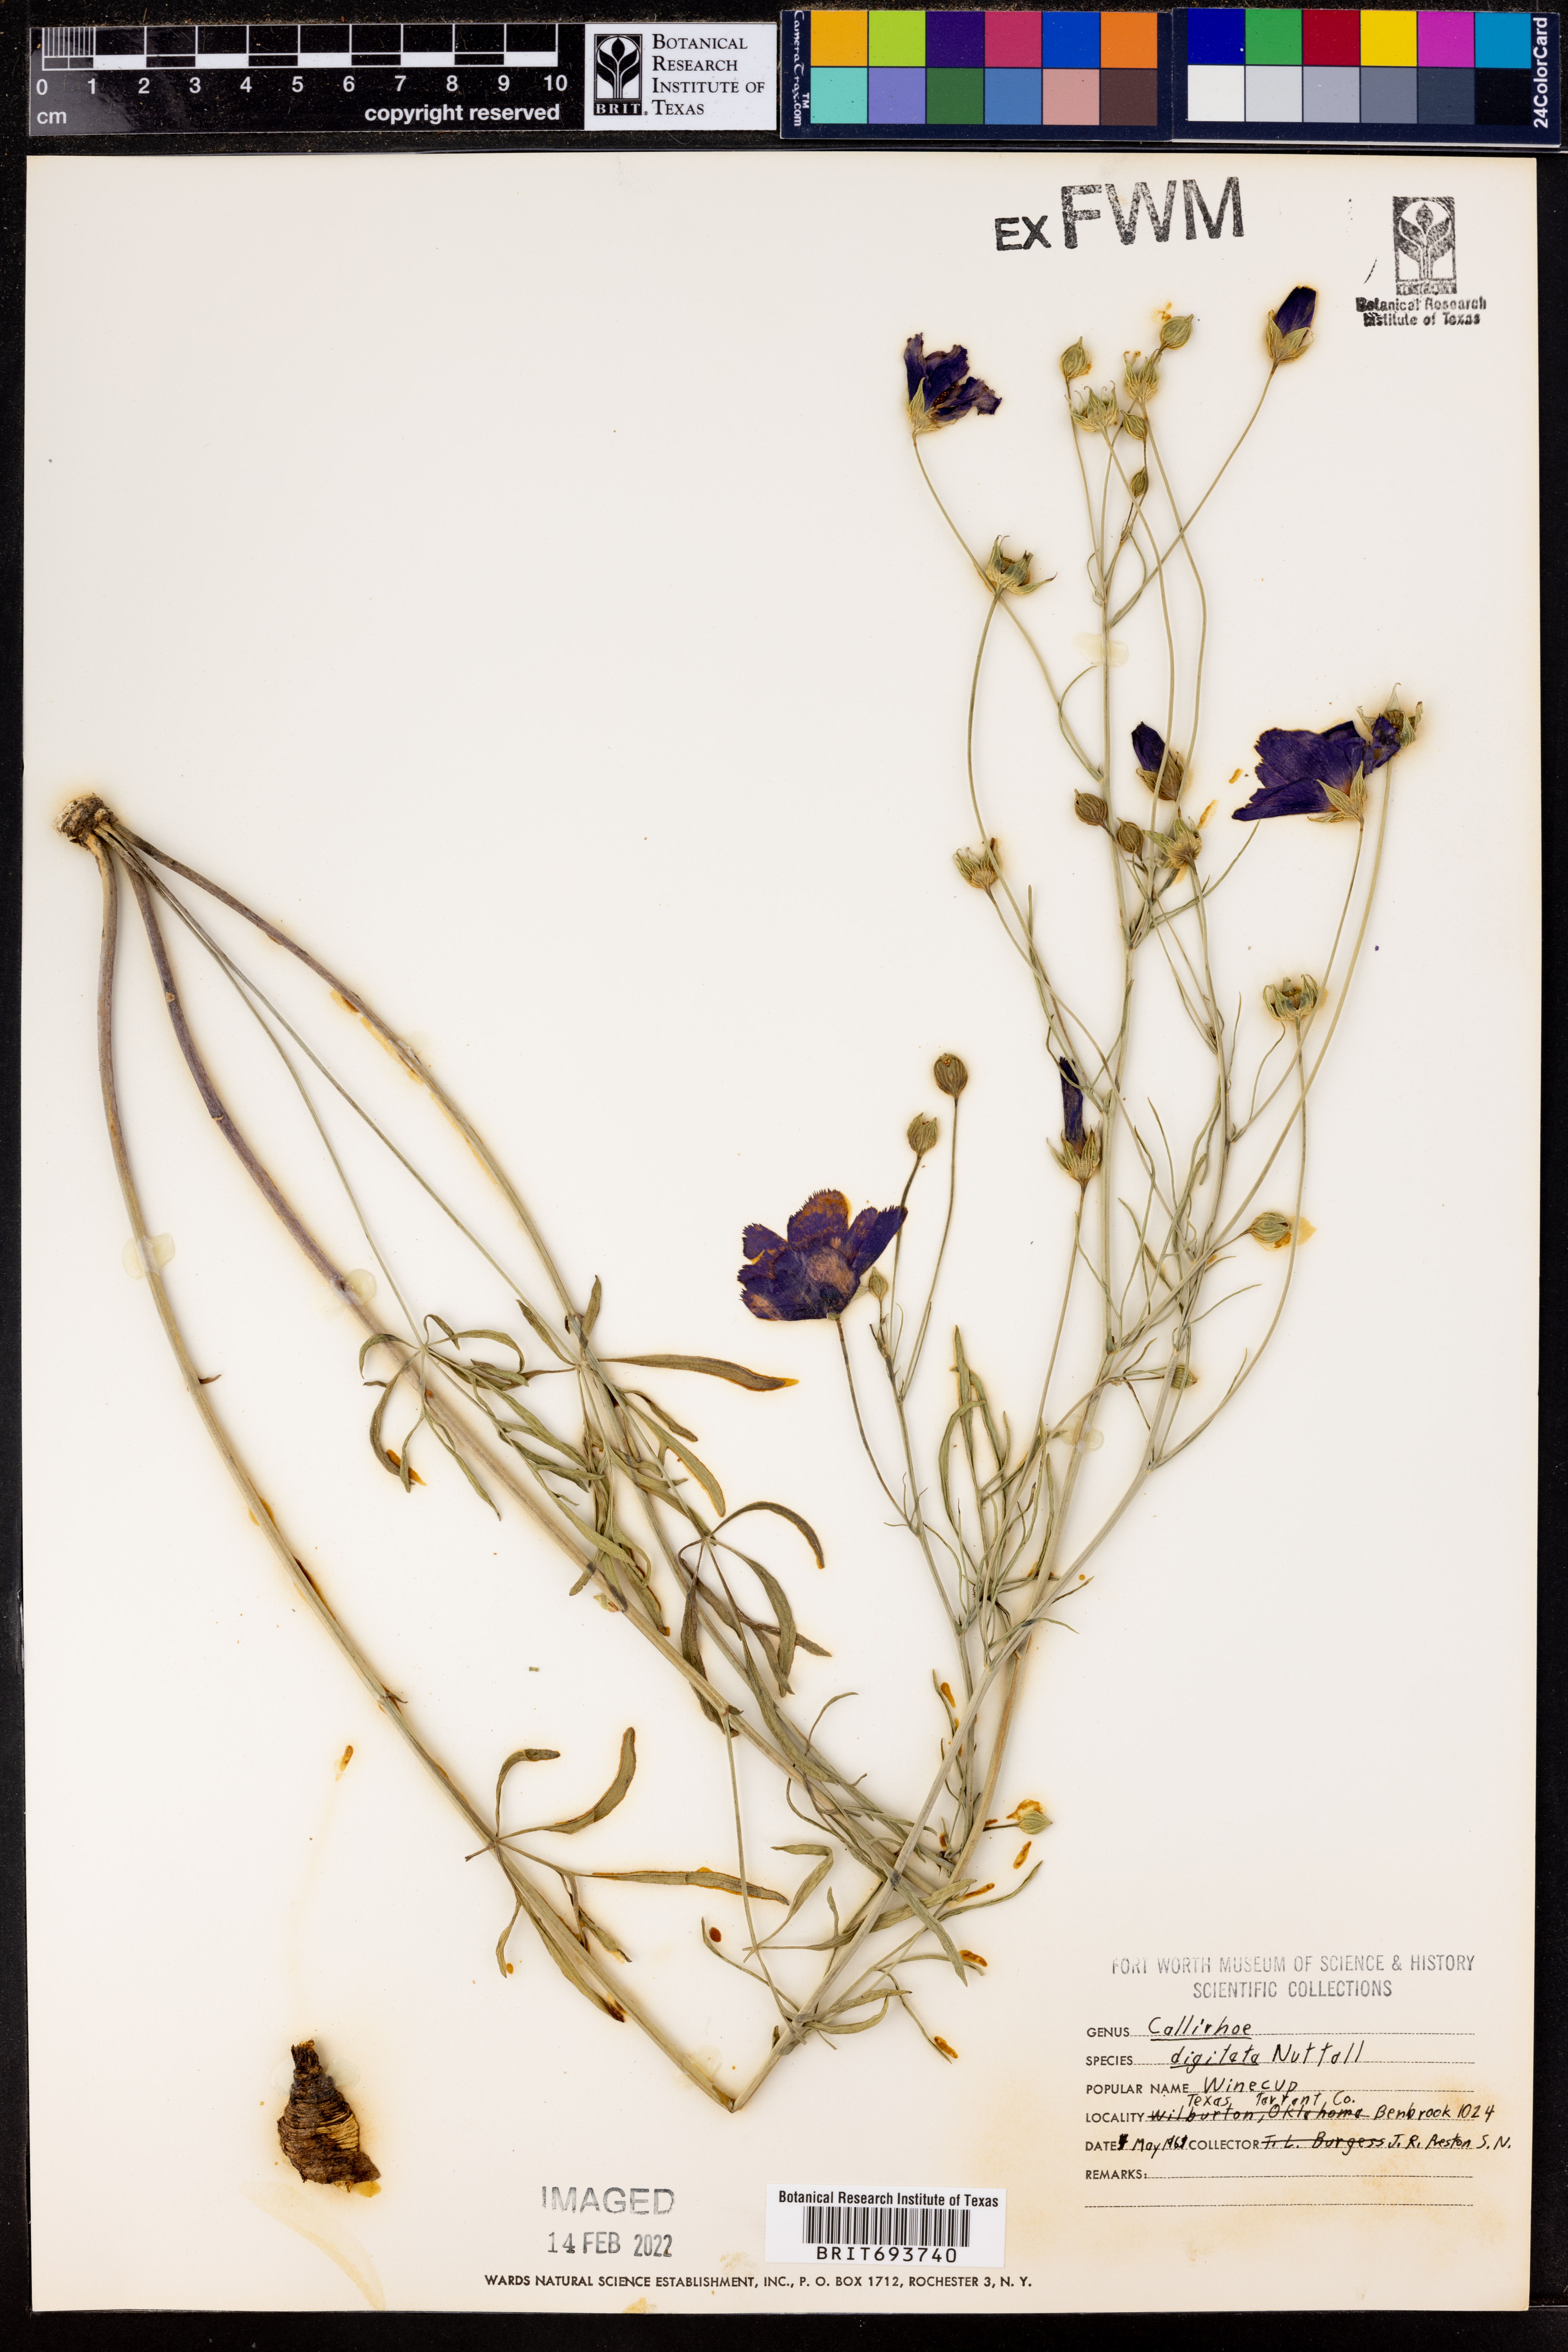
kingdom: Plantae
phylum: Tracheophyta
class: Magnoliopsida
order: Malvales
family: Malvaceae
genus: Callirhoe
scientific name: Callirhoe digitata
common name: Finger poppy-mallow
